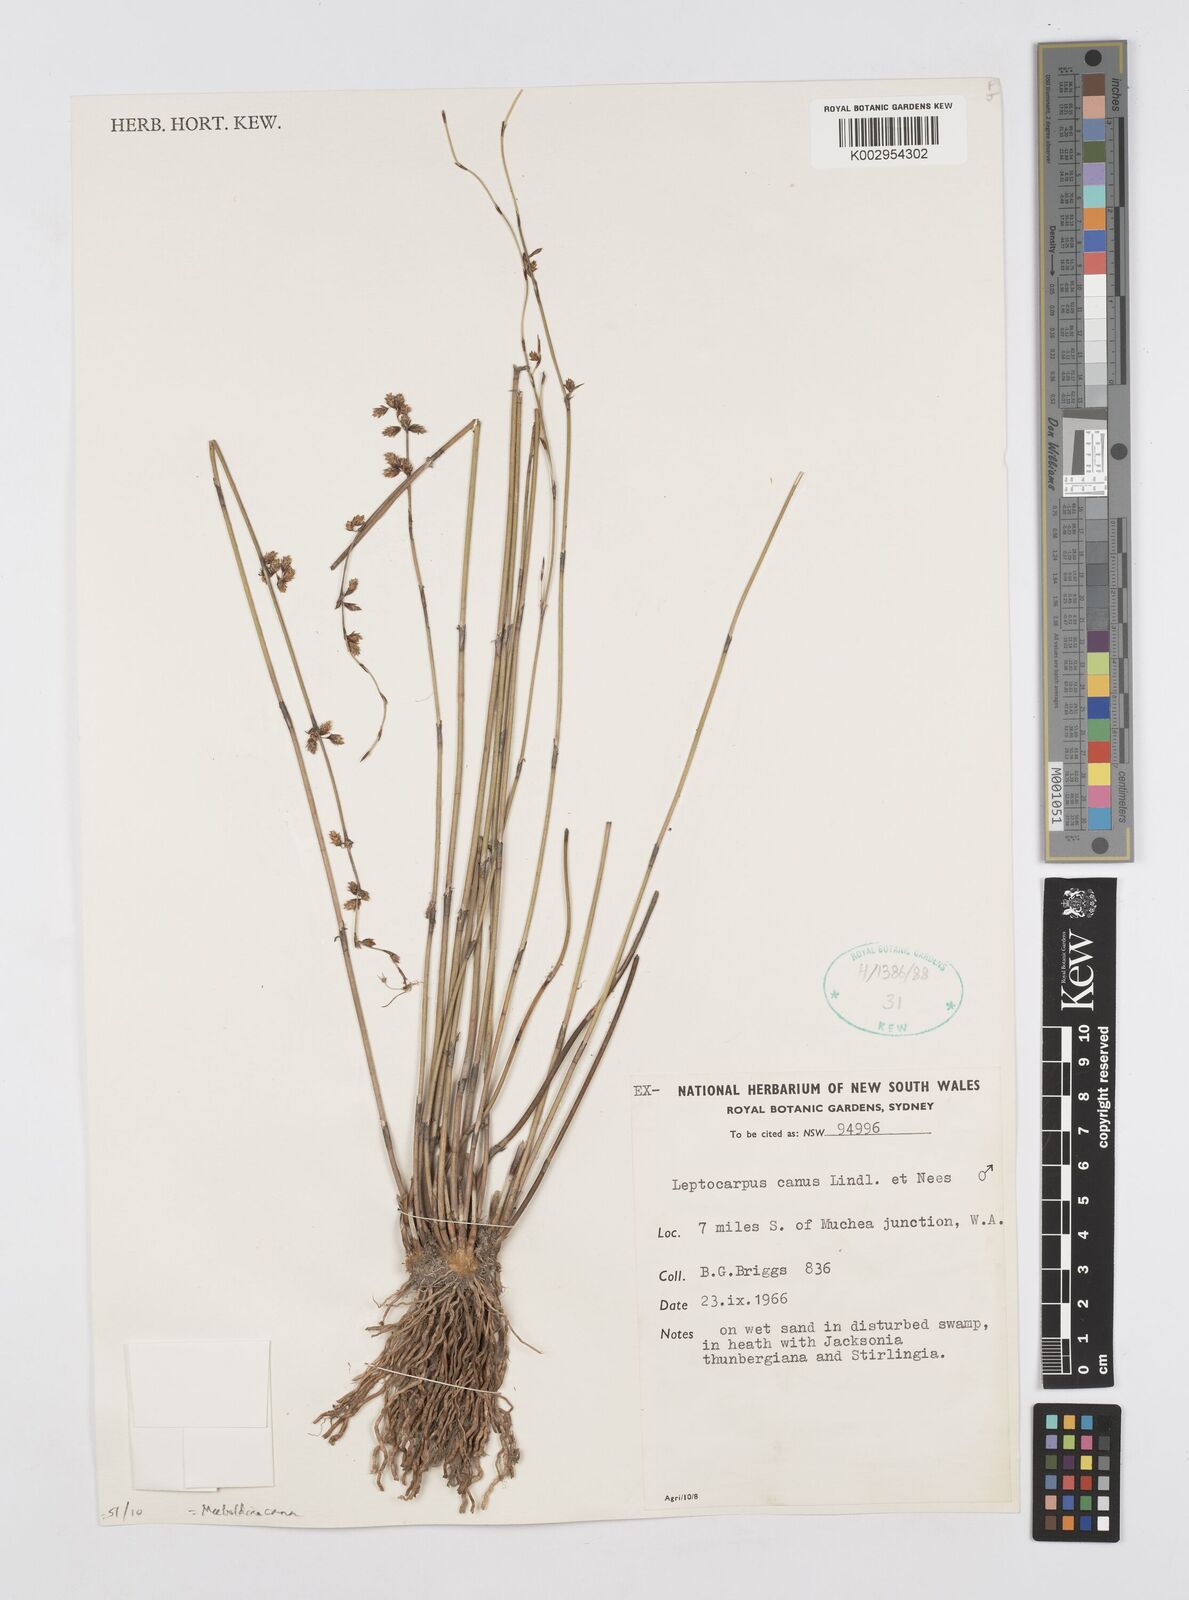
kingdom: Plantae
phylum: Tracheophyta
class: Liliopsida
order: Poales
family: Restionaceae
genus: Leptocarpus
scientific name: Leptocarpus canus
